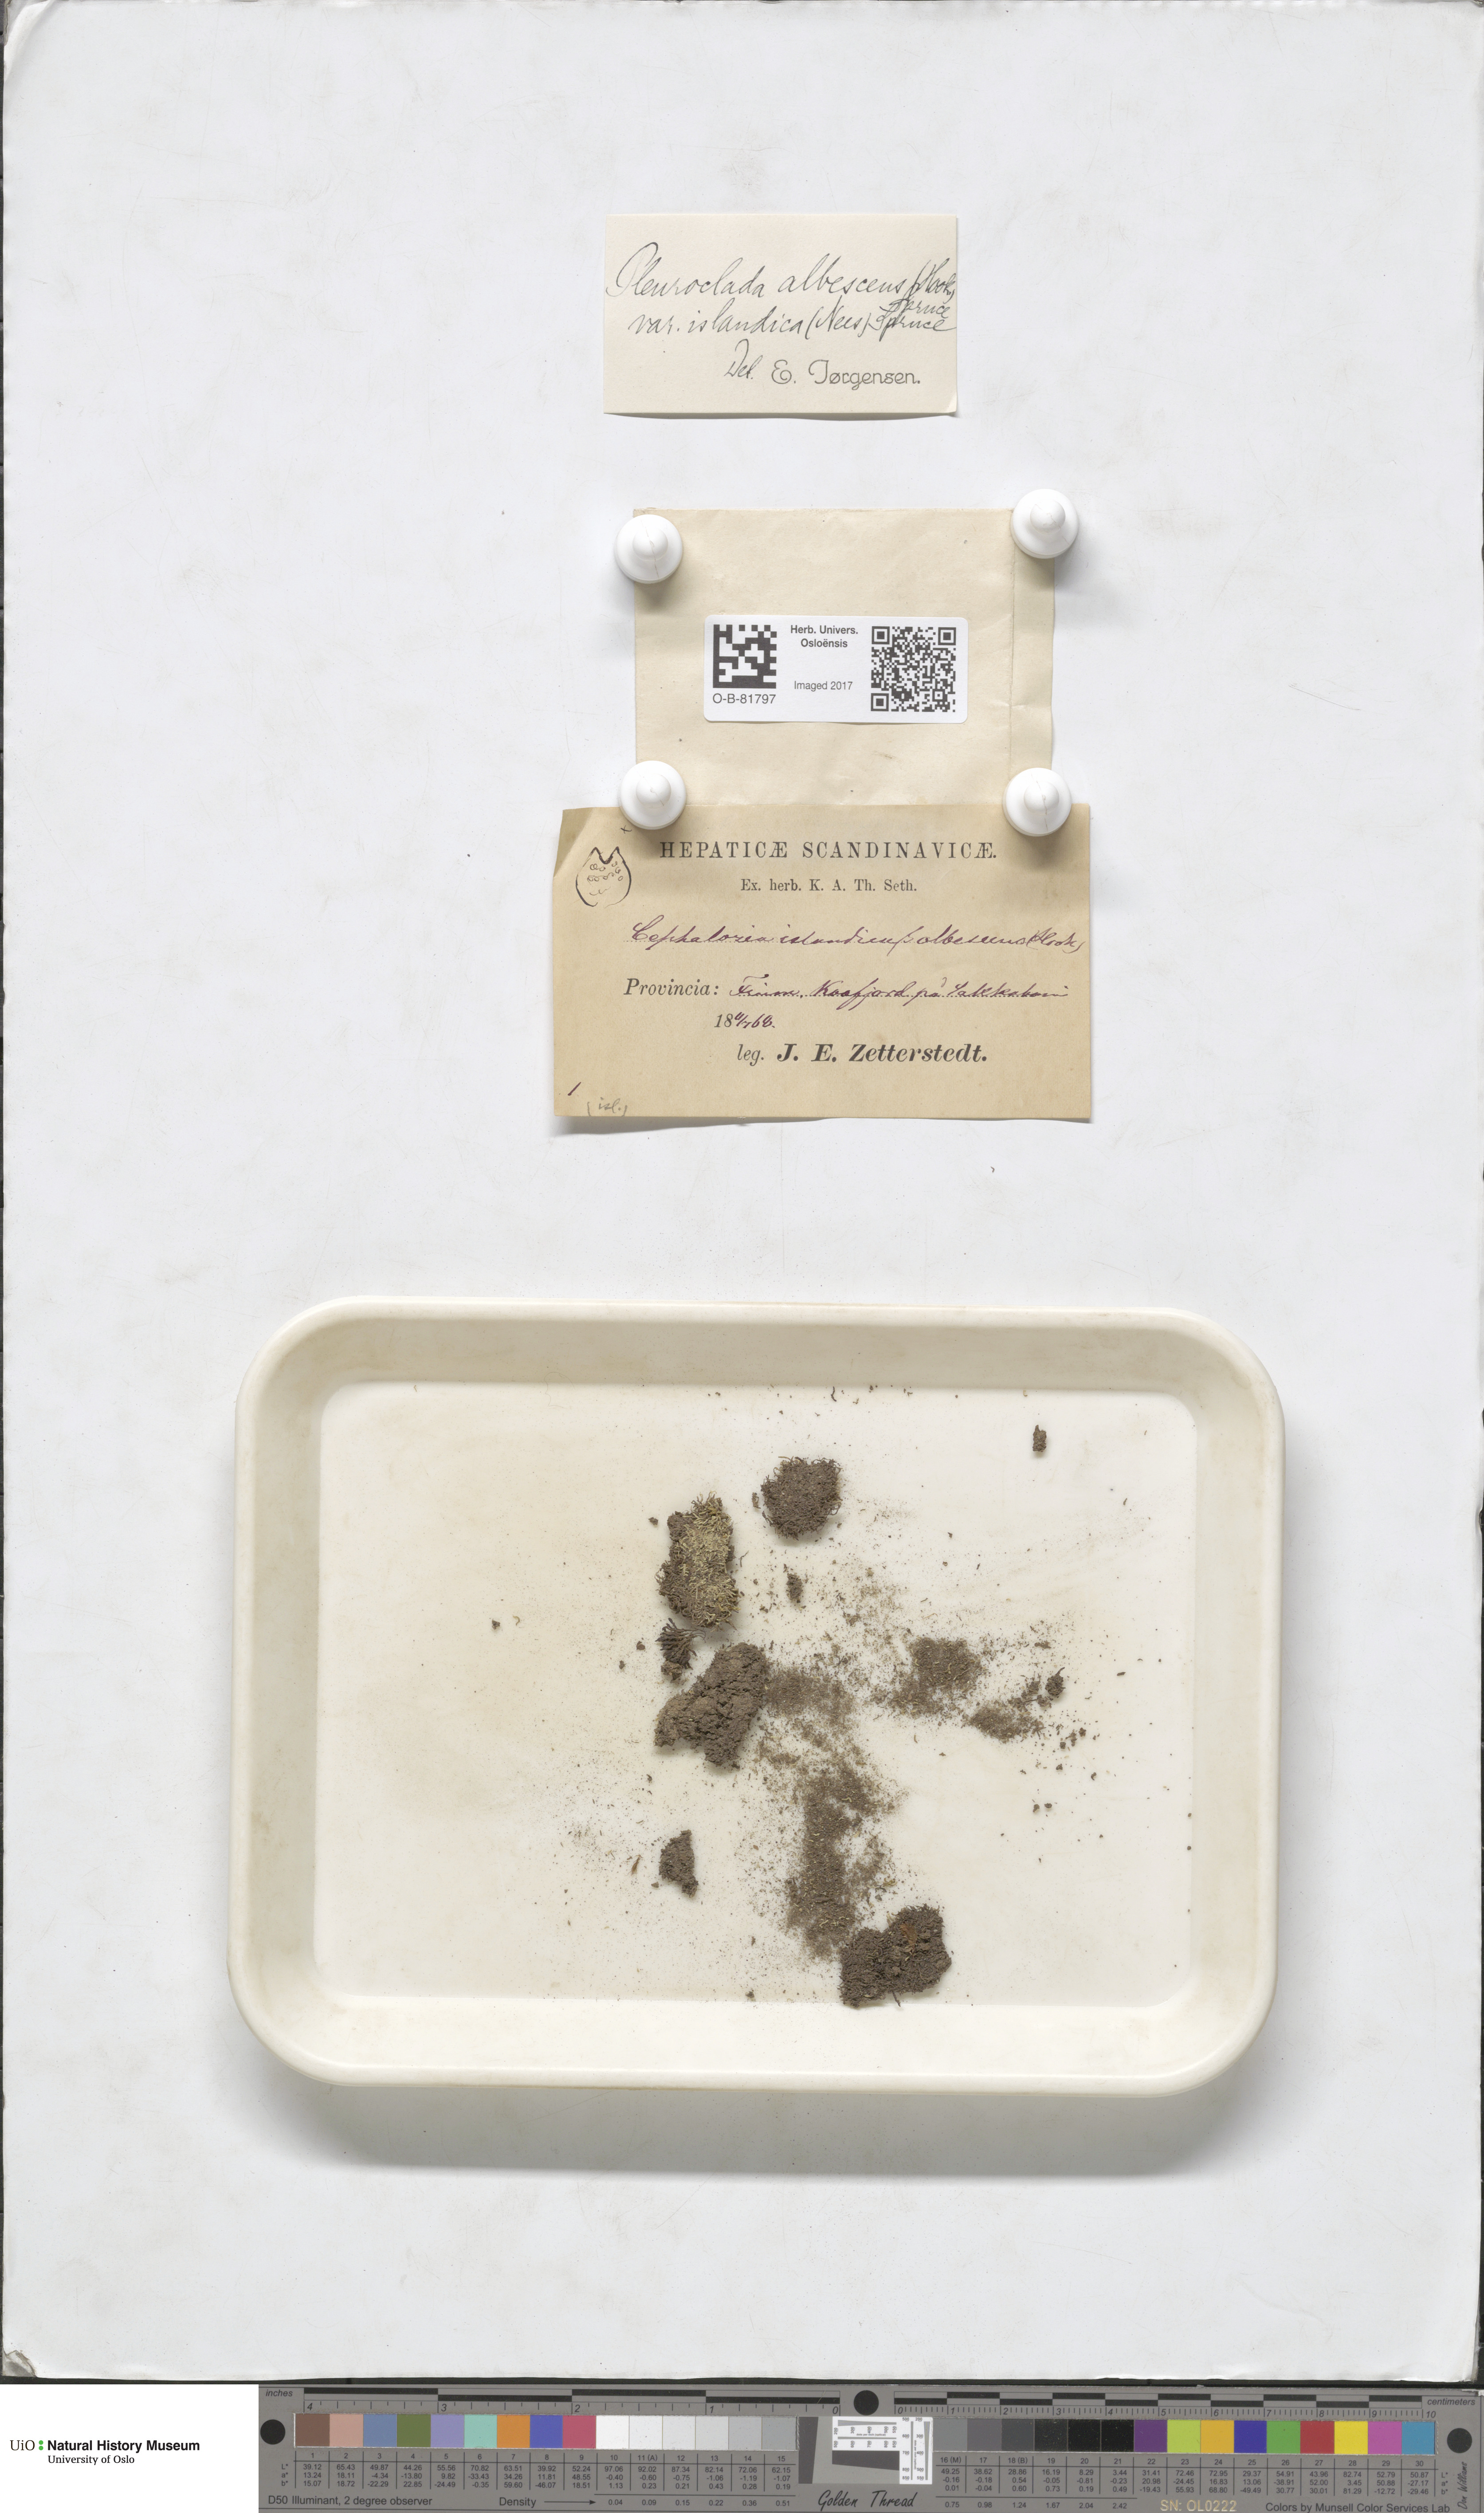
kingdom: Plantae
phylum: Marchantiophyta
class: Jungermanniopsida
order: Jungermanniales
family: Cephaloziaceae
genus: Fuscocephaloziopsis
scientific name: Fuscocephaloziopsis albescens
